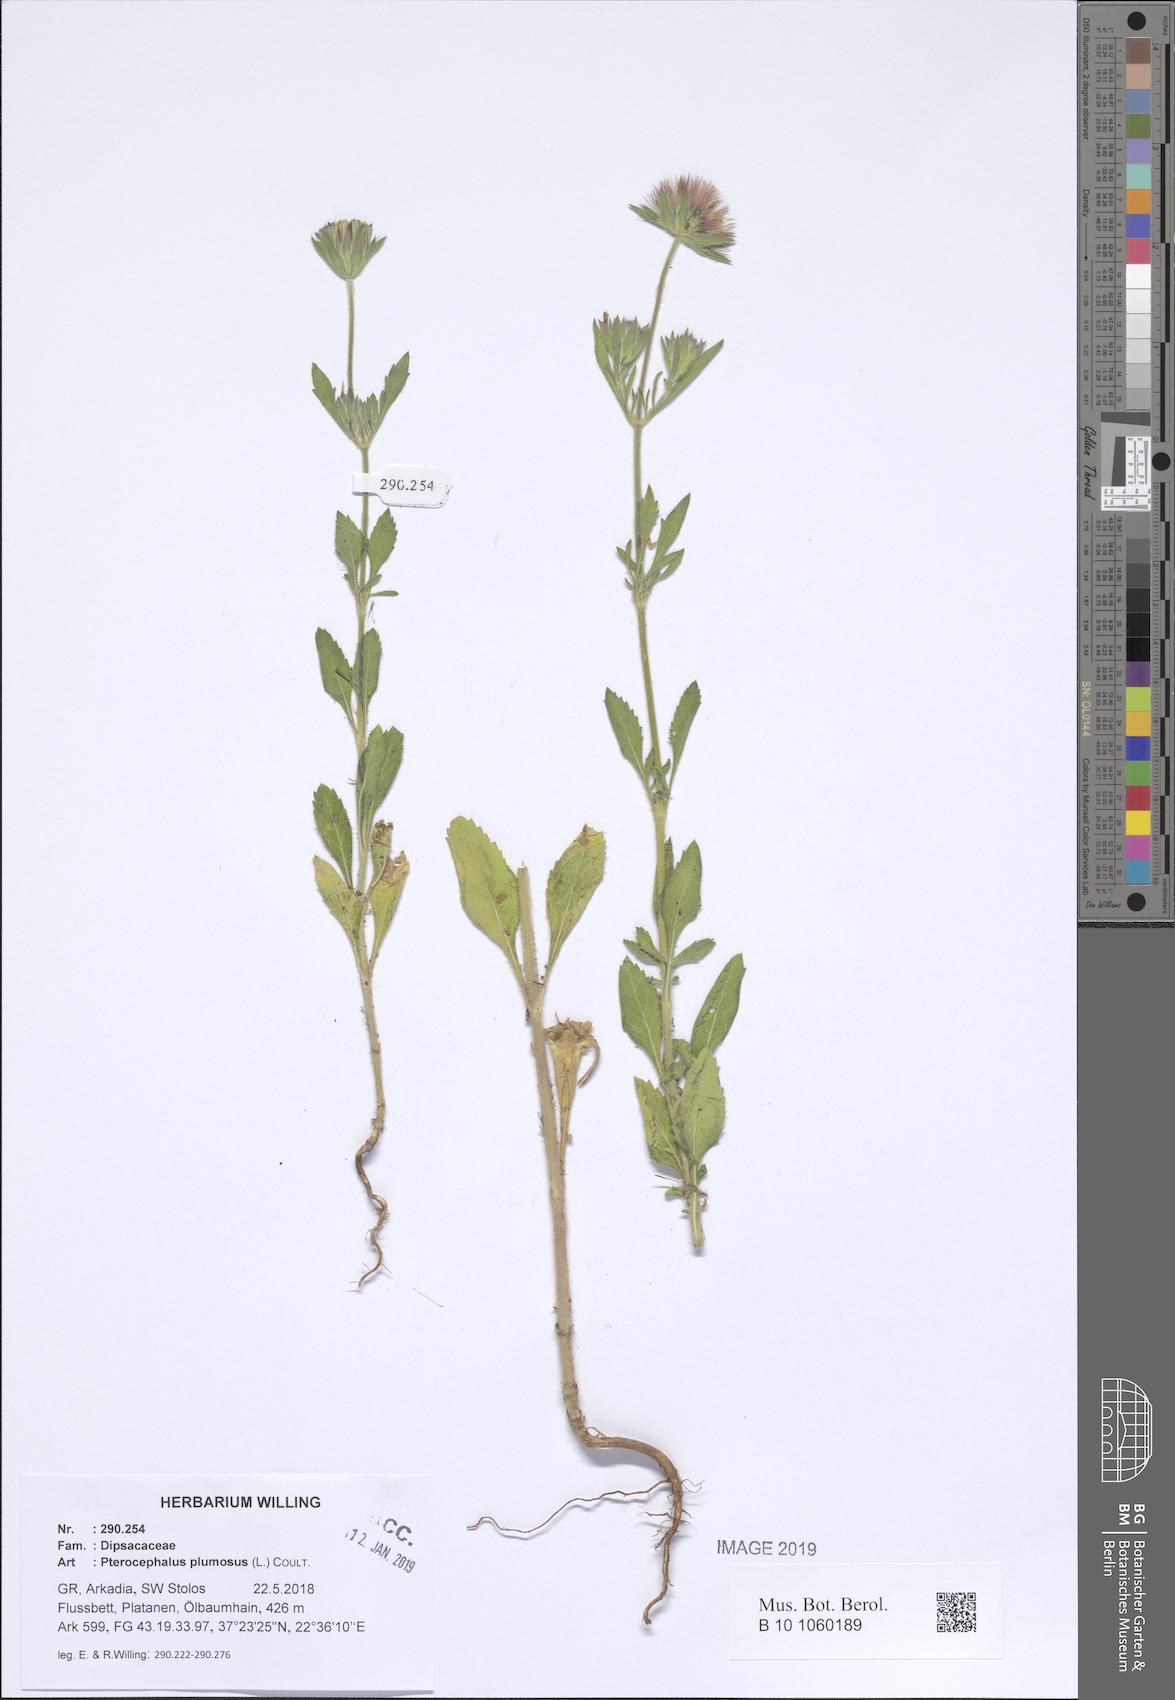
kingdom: Plantae
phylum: Tracheophyta
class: Magnoliopsida
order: Dipsacales
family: Caprifoliaceae
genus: Pterocephalus
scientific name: Pterocephalus plumosus
